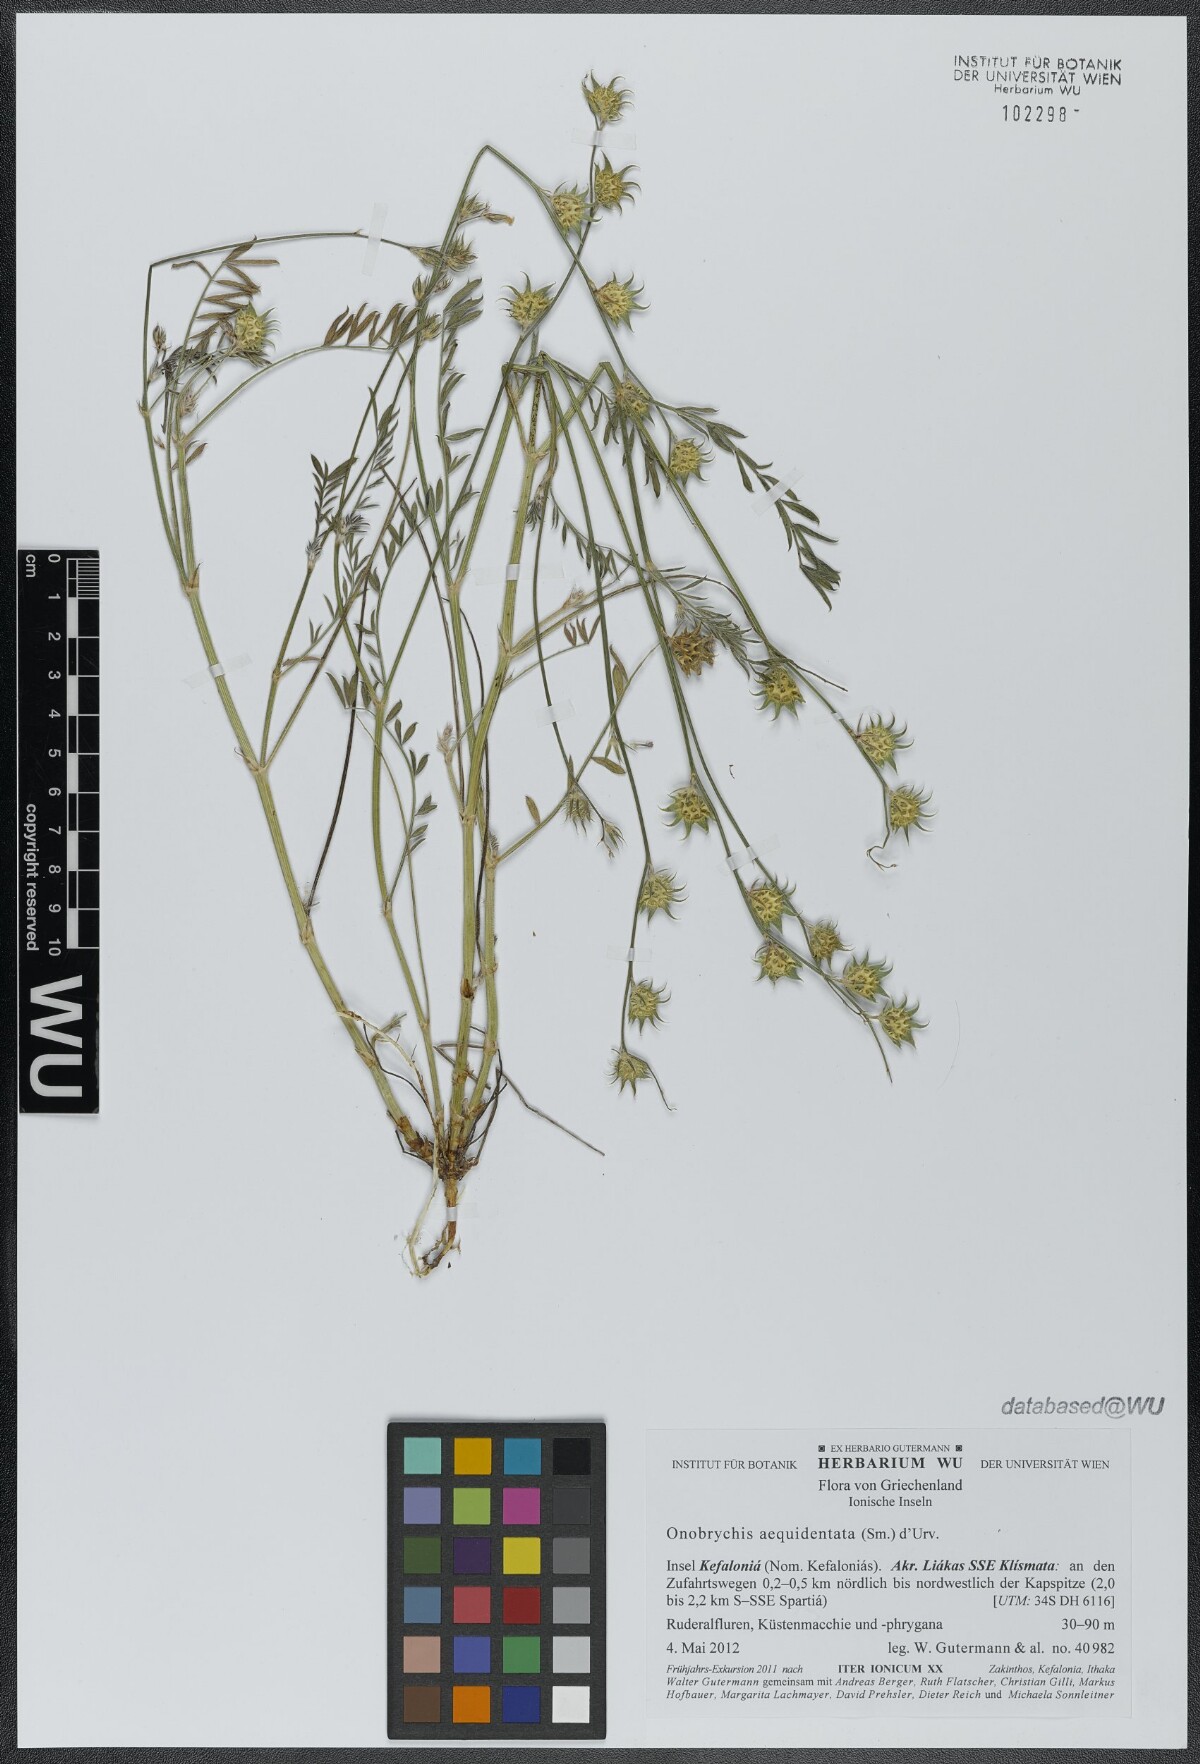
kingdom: Plantae
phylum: Tracheophyta
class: Magnoliopsida
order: Fabales
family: Fabaceae
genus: Onobrychis
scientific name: Onobrychis aequidentata
